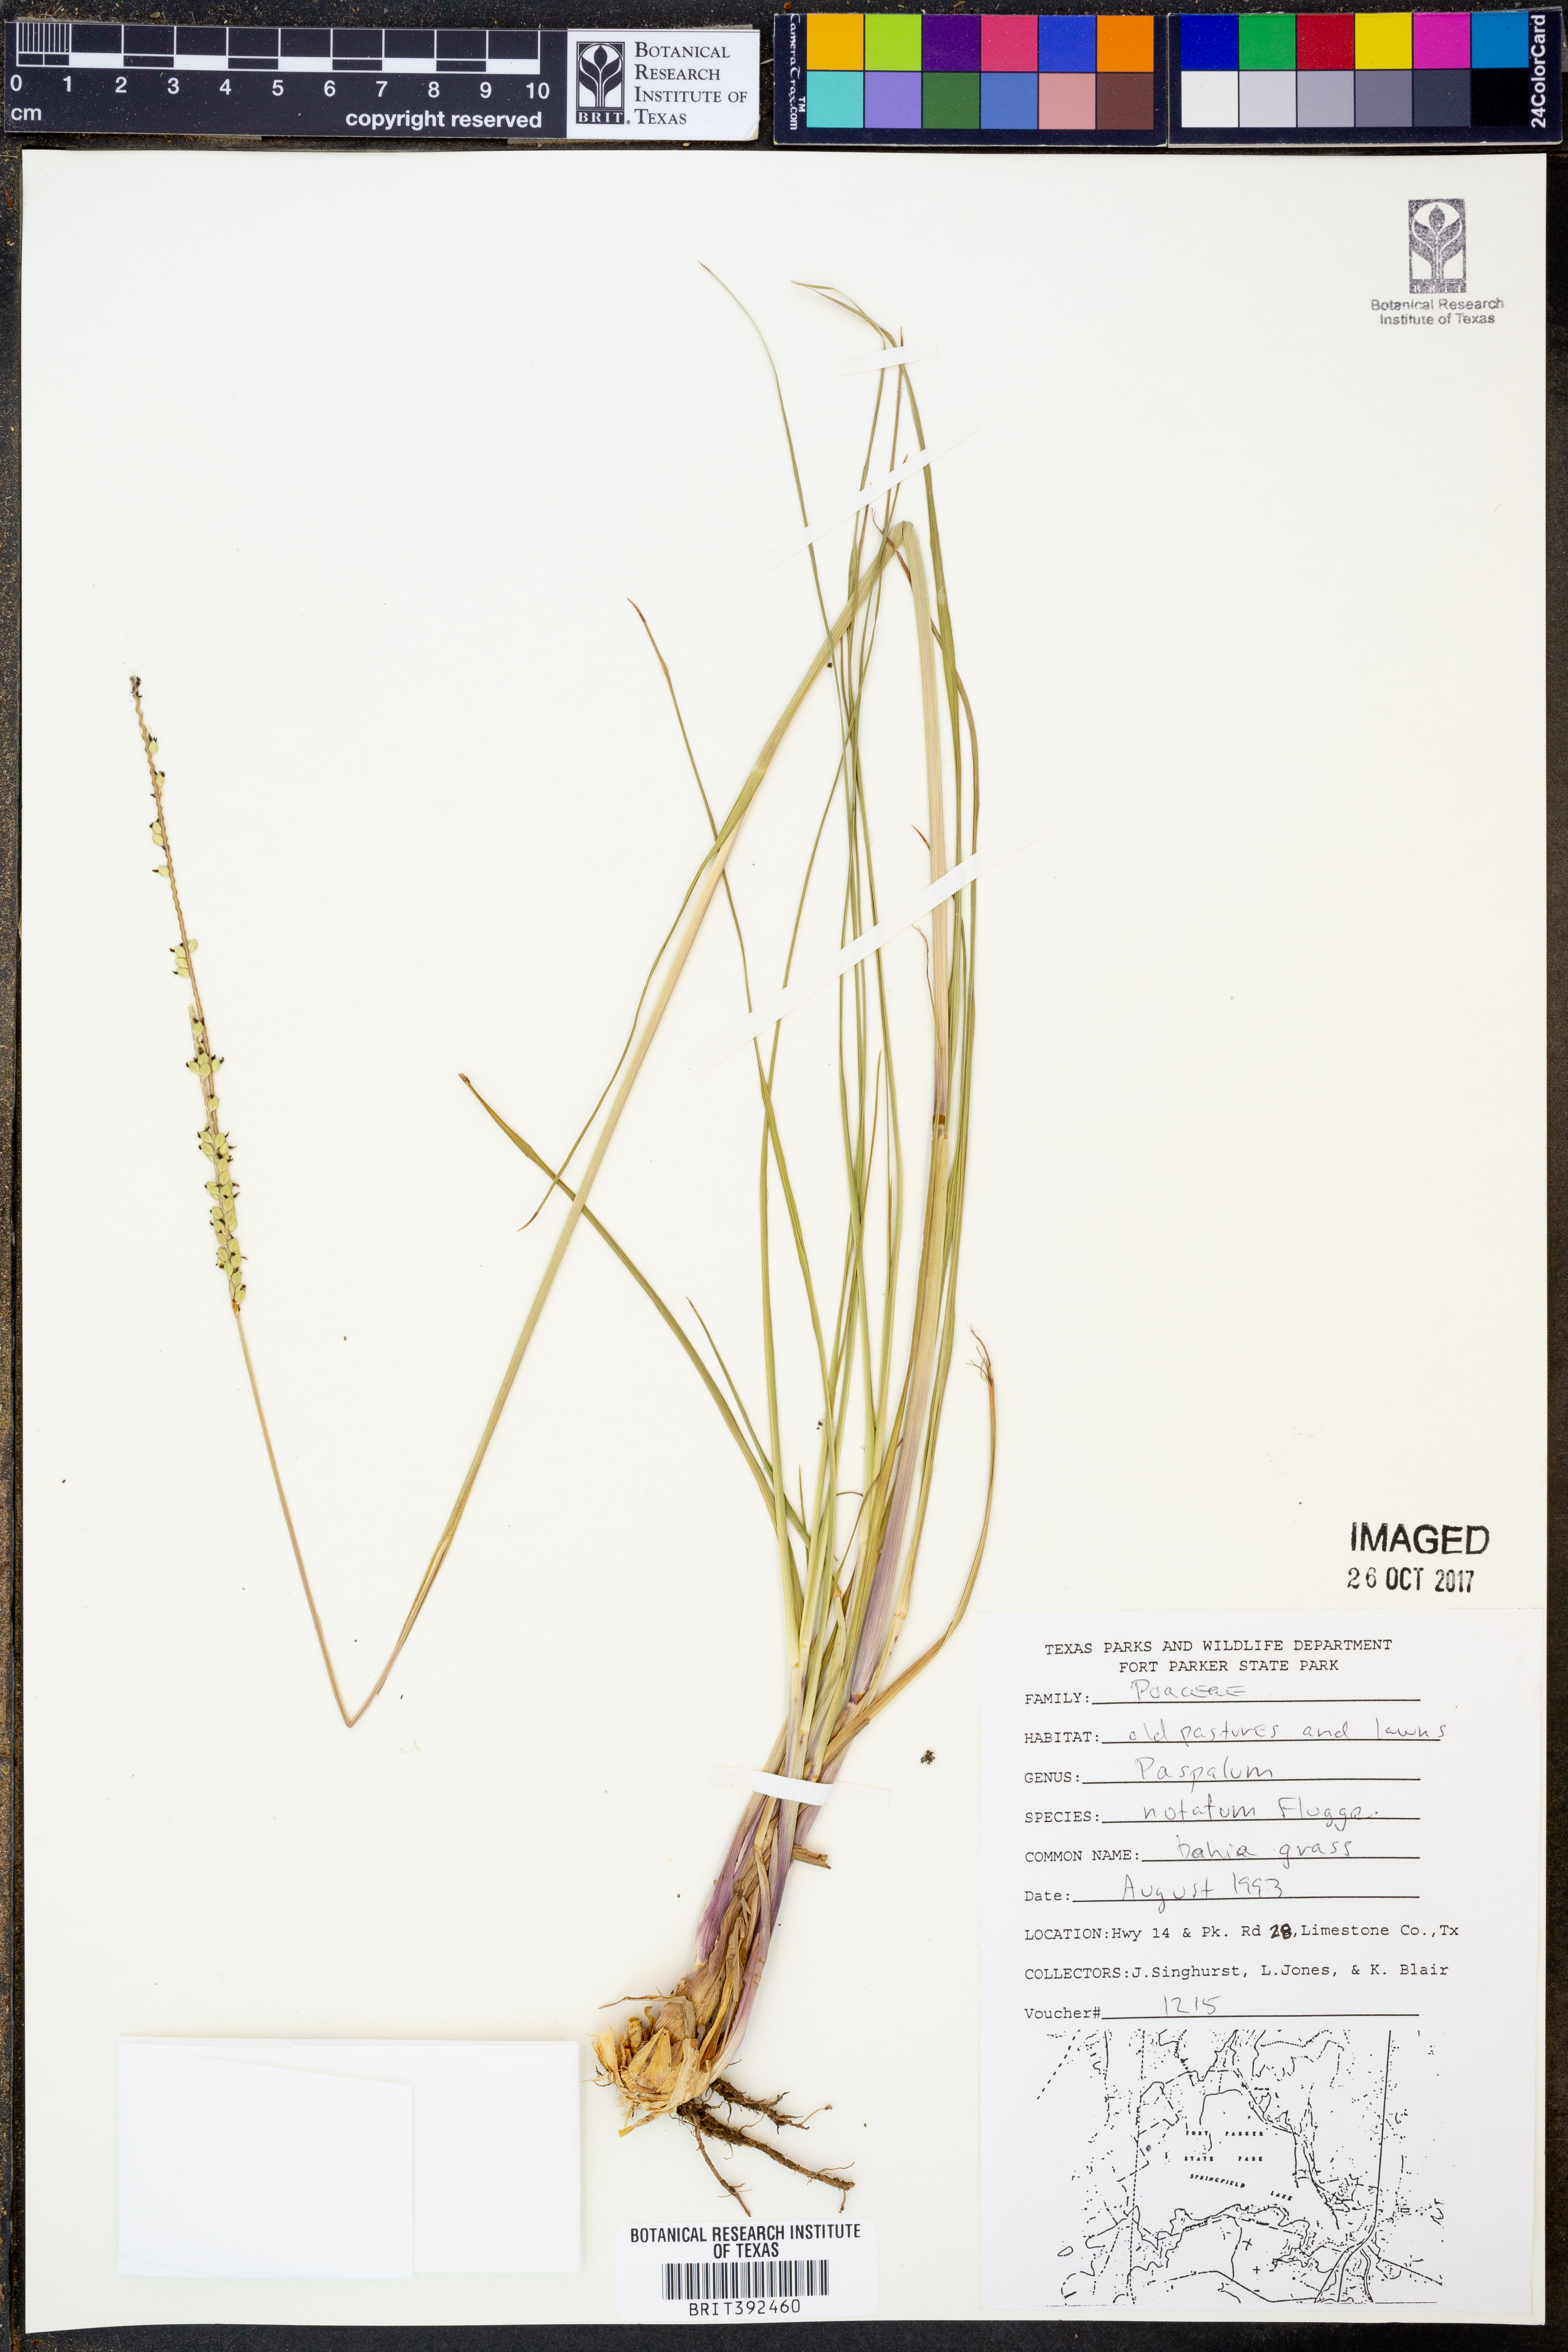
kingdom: Plantae
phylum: Tracheophyta
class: Liliopsida
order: Poales
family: Poaceae
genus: Paspalum
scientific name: Paspalum notatum
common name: Bahiagrass
